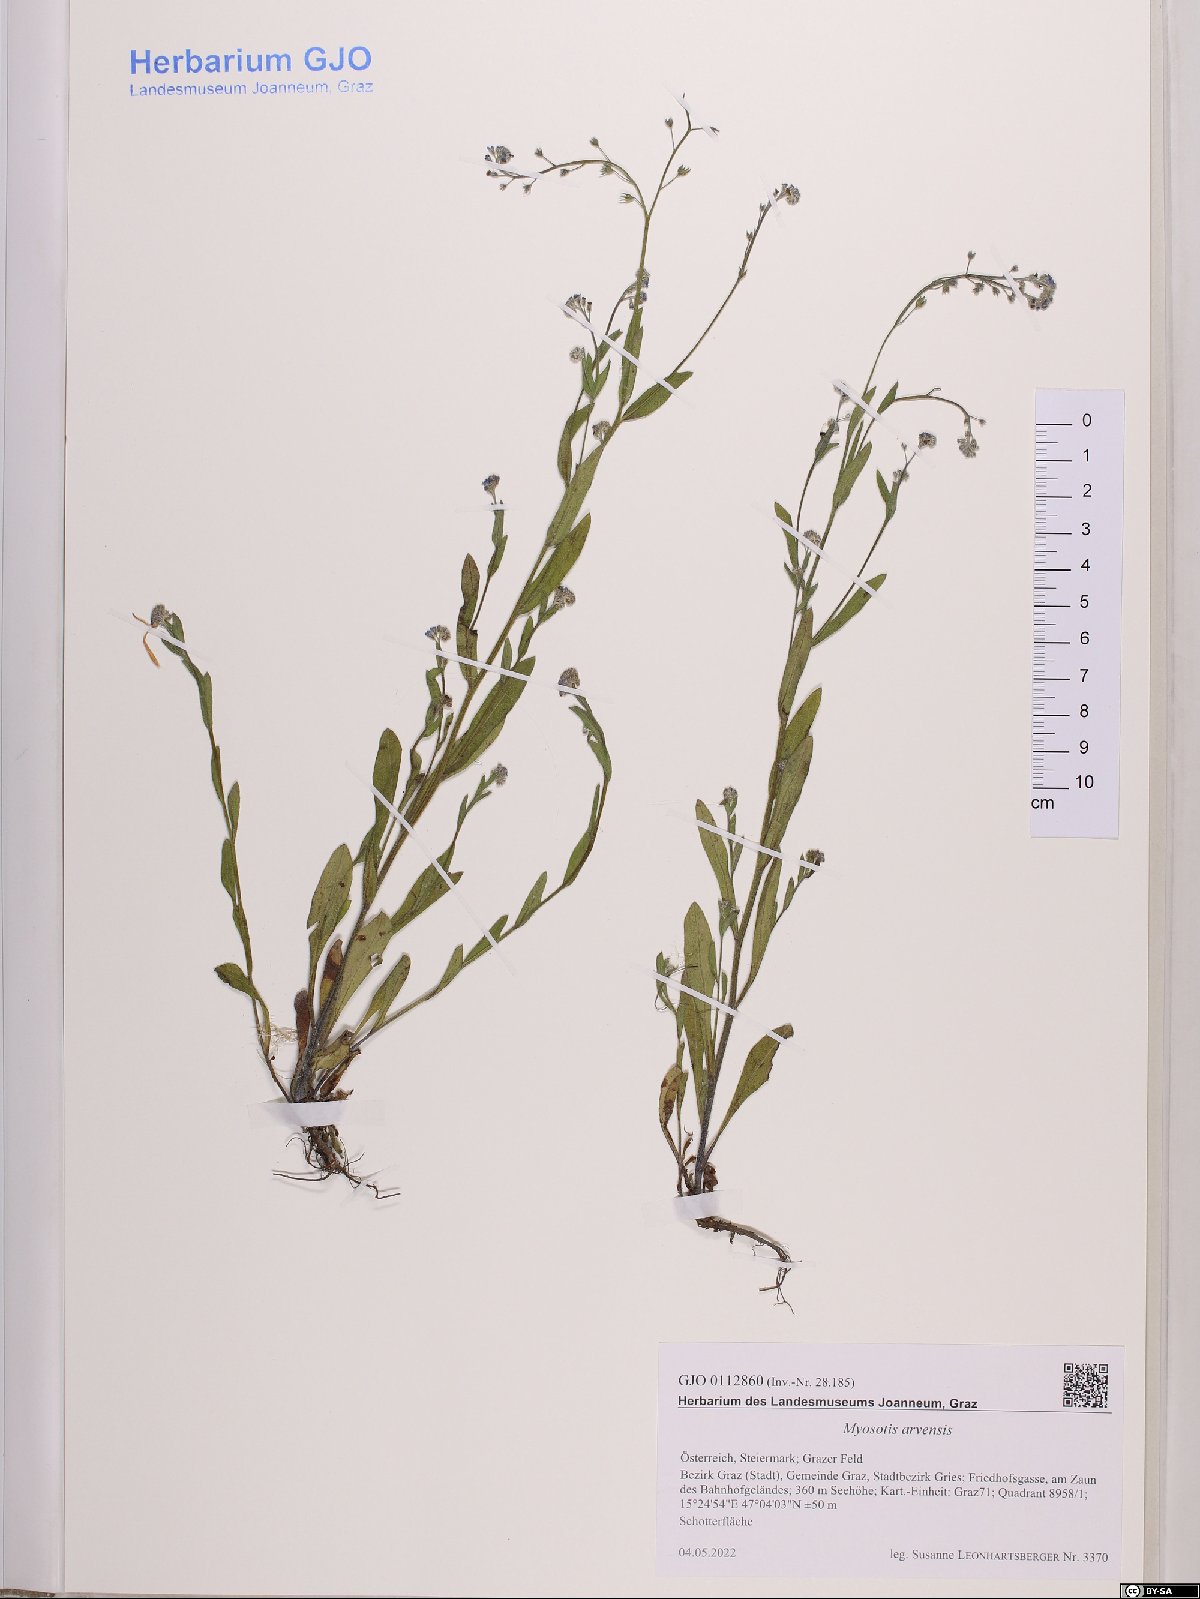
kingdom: Plantae
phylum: Tracheophyta
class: Magnoliopsida
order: Boraginales
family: Boraginaceae
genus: Myosotis
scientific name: Myosotis arvensis
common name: Field forget-me-not
